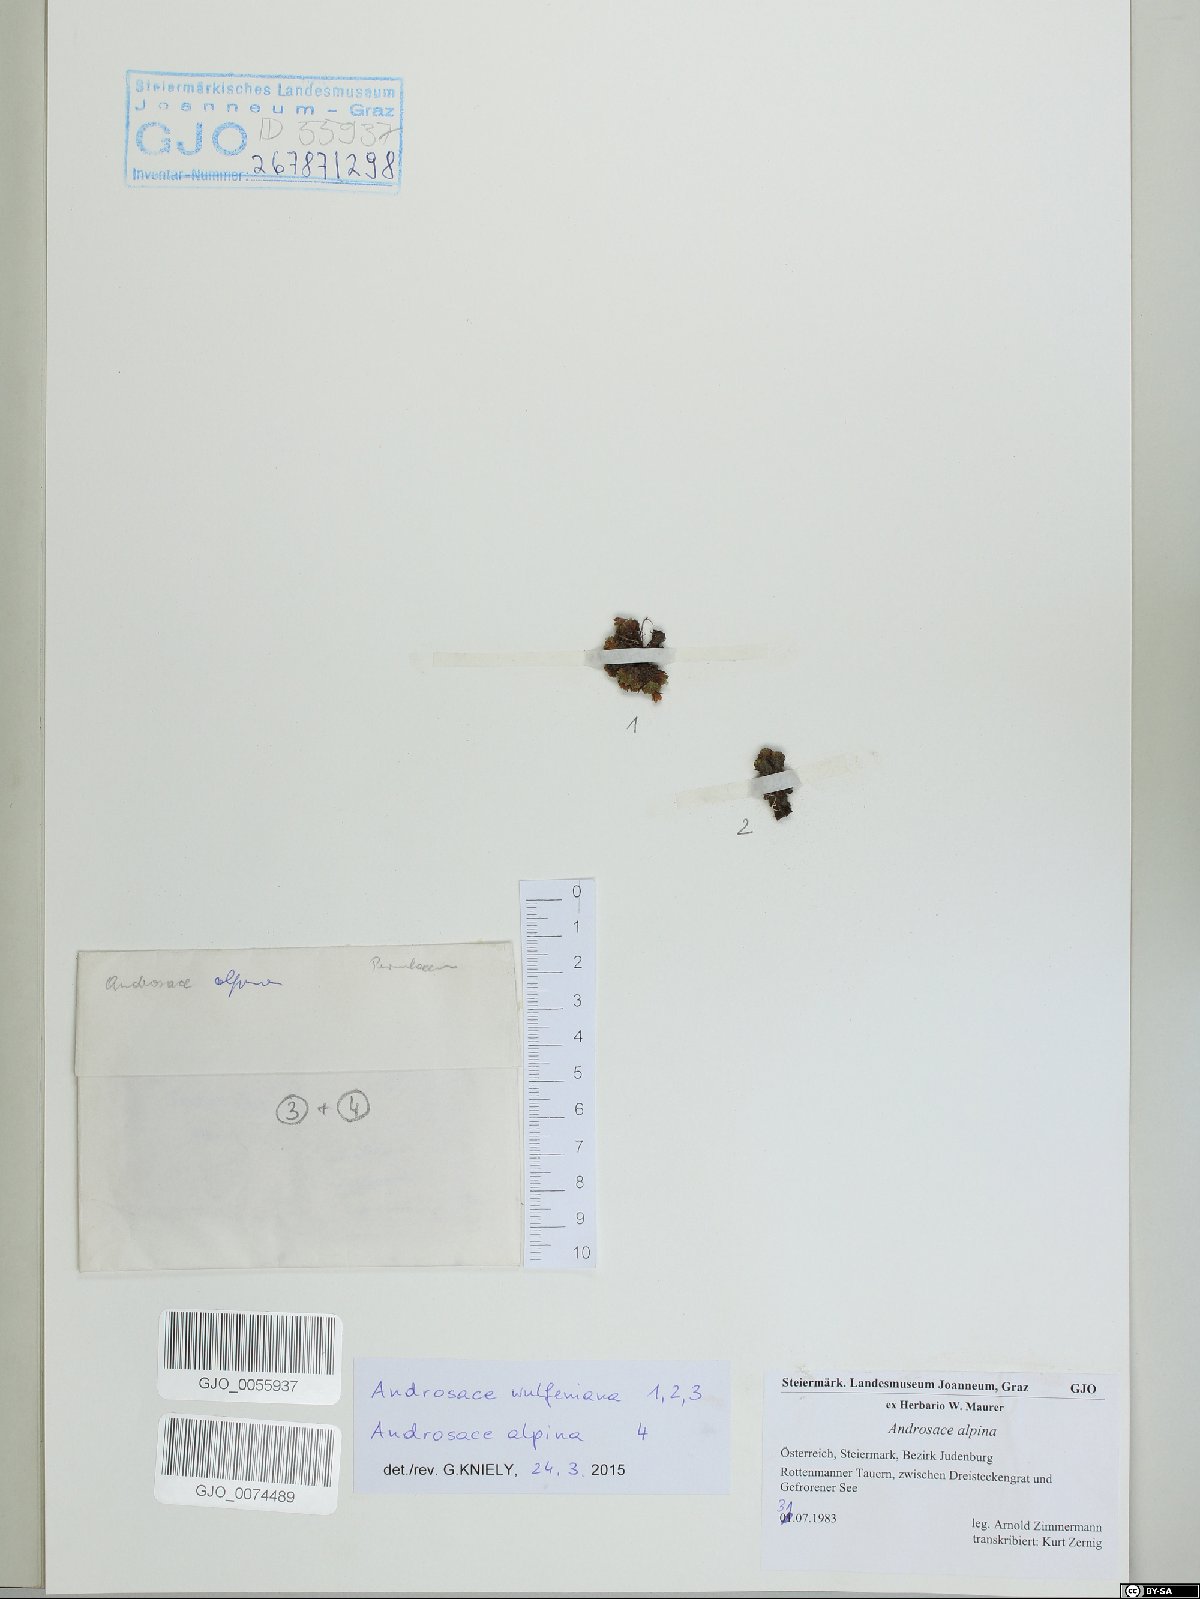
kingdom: Plantae
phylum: Tracheophyta
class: Magnoliopsida
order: Ericales
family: Primulaceae
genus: Androsace
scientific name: Androsace wulfeniana
